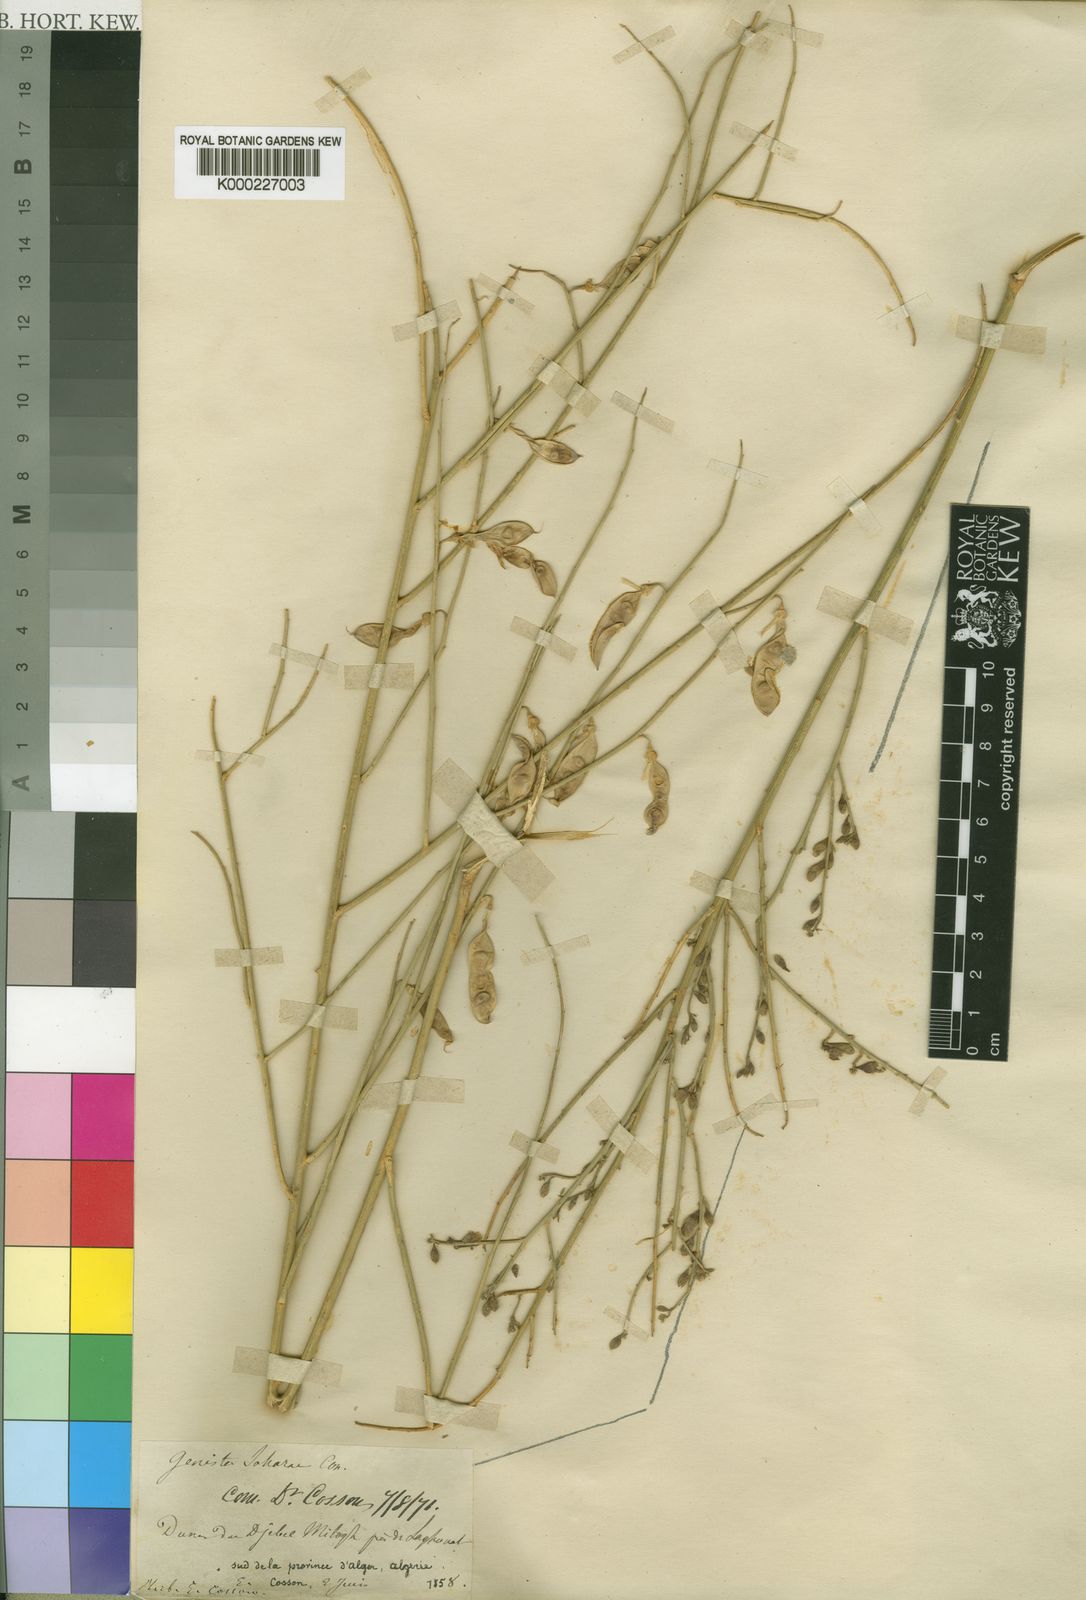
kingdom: Plantae
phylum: Tracheophyta
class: Magnoliopsida
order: Fabales
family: Fabaceae
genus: Calobota
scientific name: Calobota saharae
